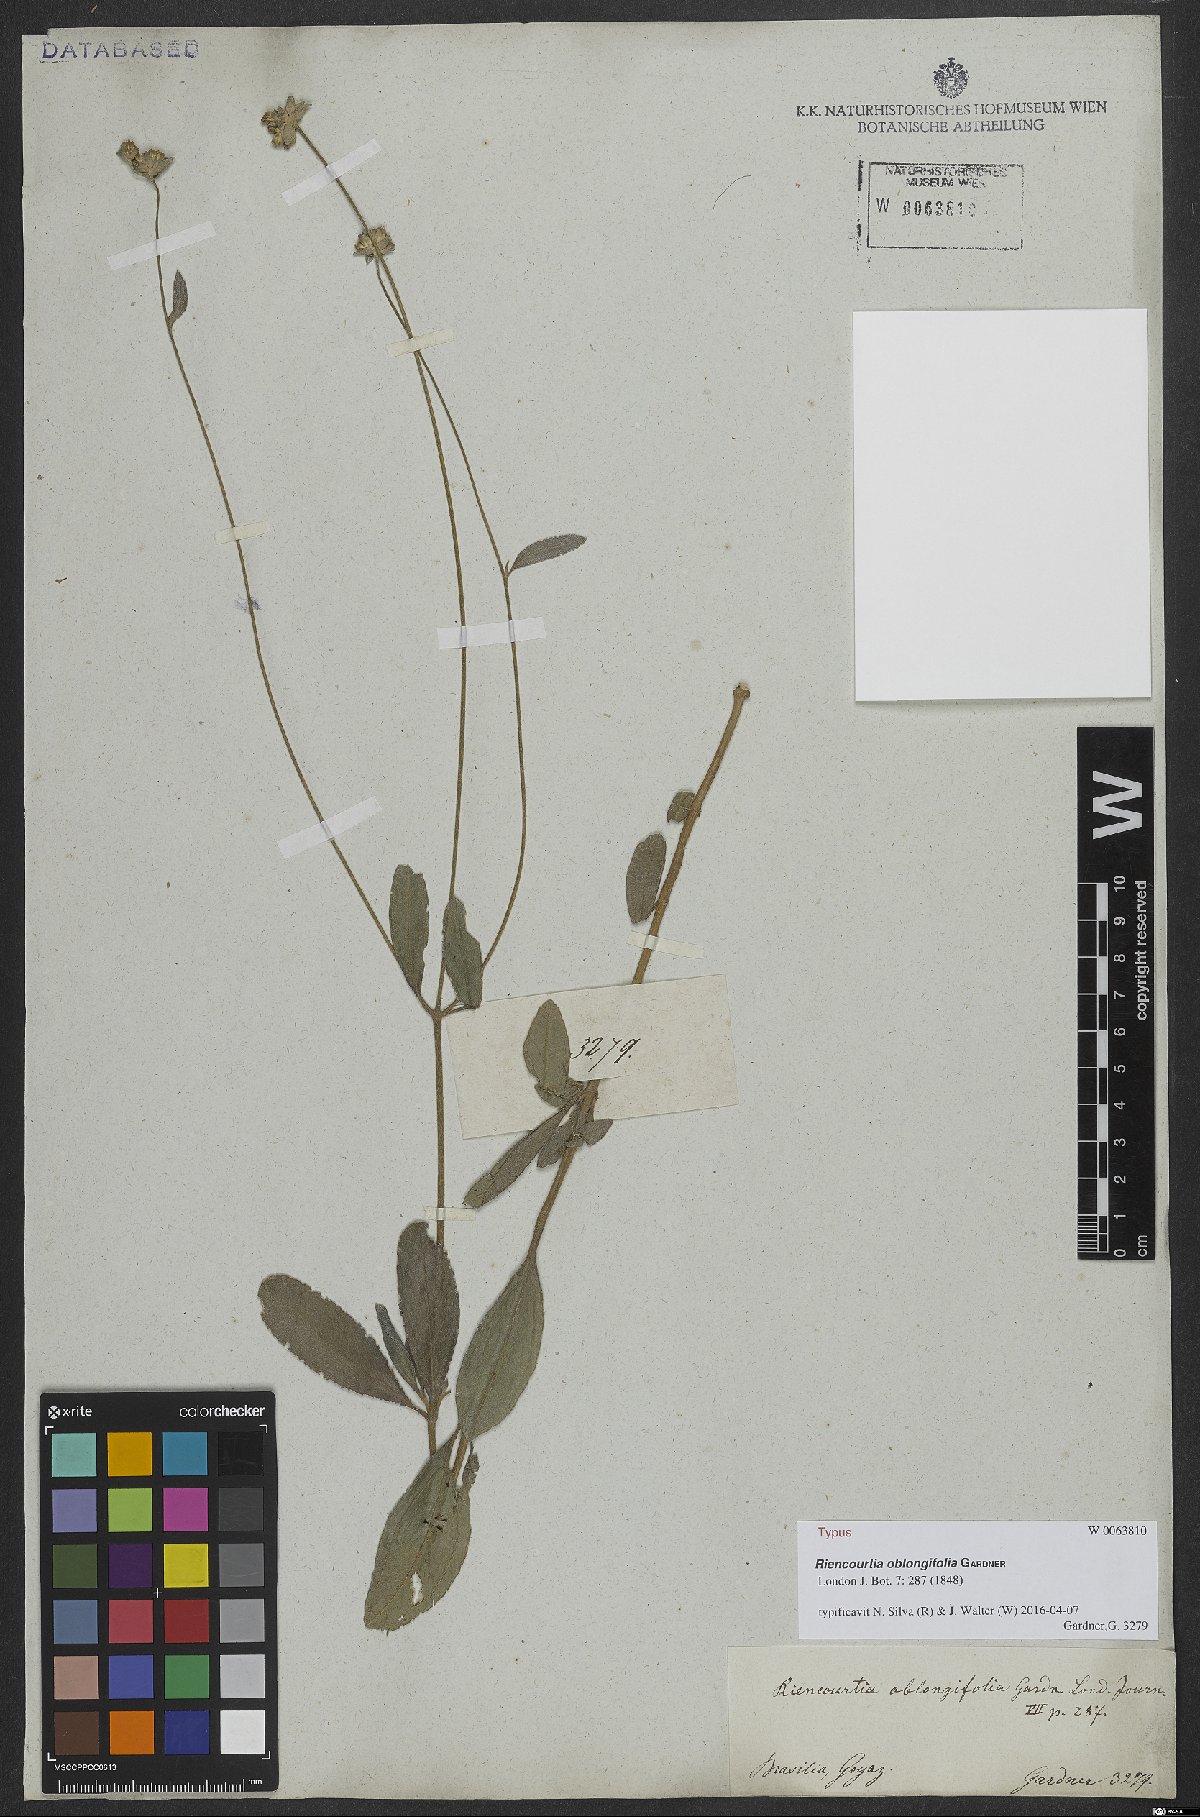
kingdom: Plantae
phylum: Tracheophyta
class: Magnoliopsida
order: Asterales
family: Asteraceae
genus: Riencourtia
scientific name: Riencourtia oblongifolia
